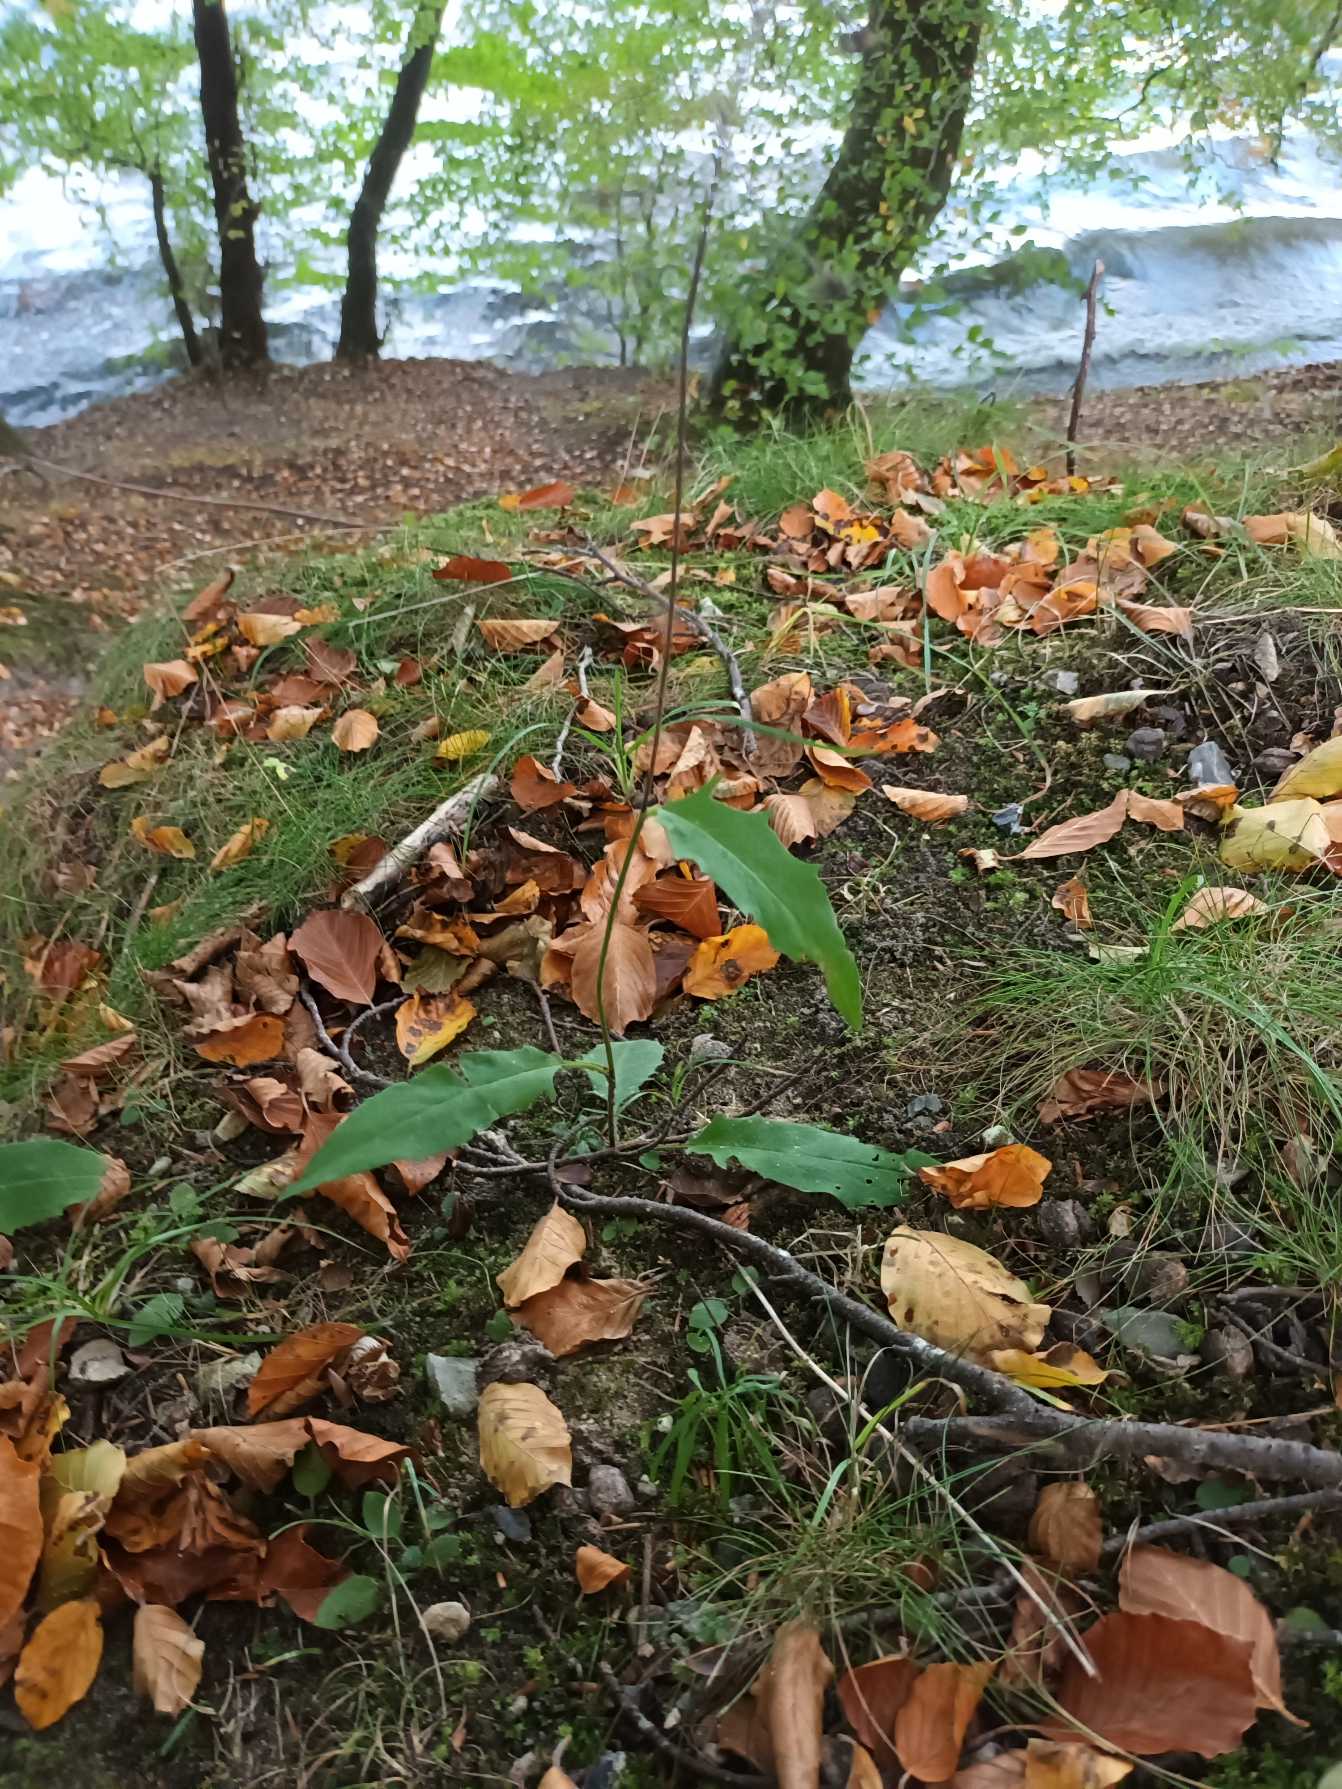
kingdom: Plantae
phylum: Tracheophyta
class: Magnoliopsida
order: Asterales
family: Asteraceae
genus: Hieracium
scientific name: Hieracium
